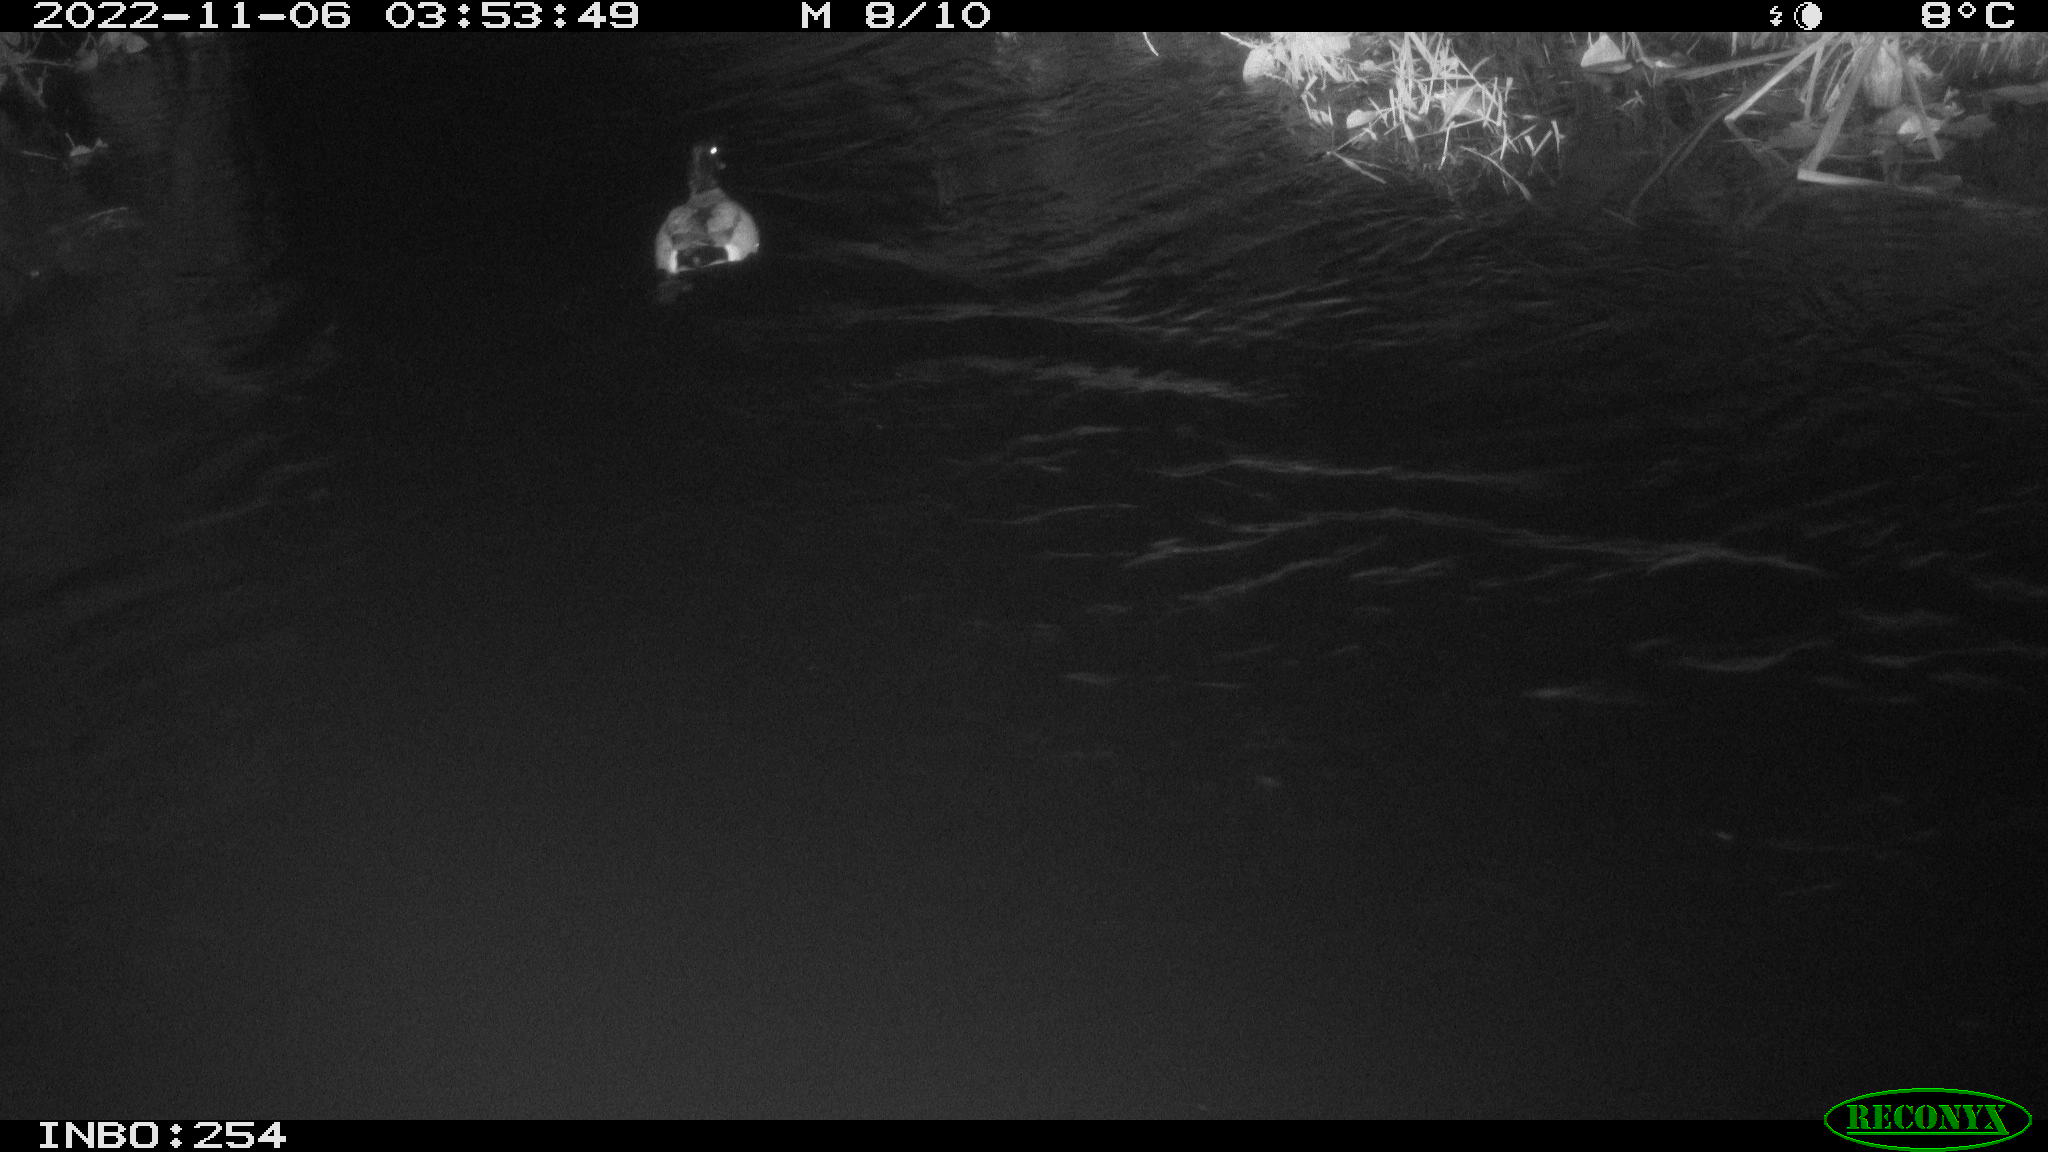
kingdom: Animalia
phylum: Chordata
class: Aves
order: Anseriformes
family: Anatidae
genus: Anas
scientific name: Anas
